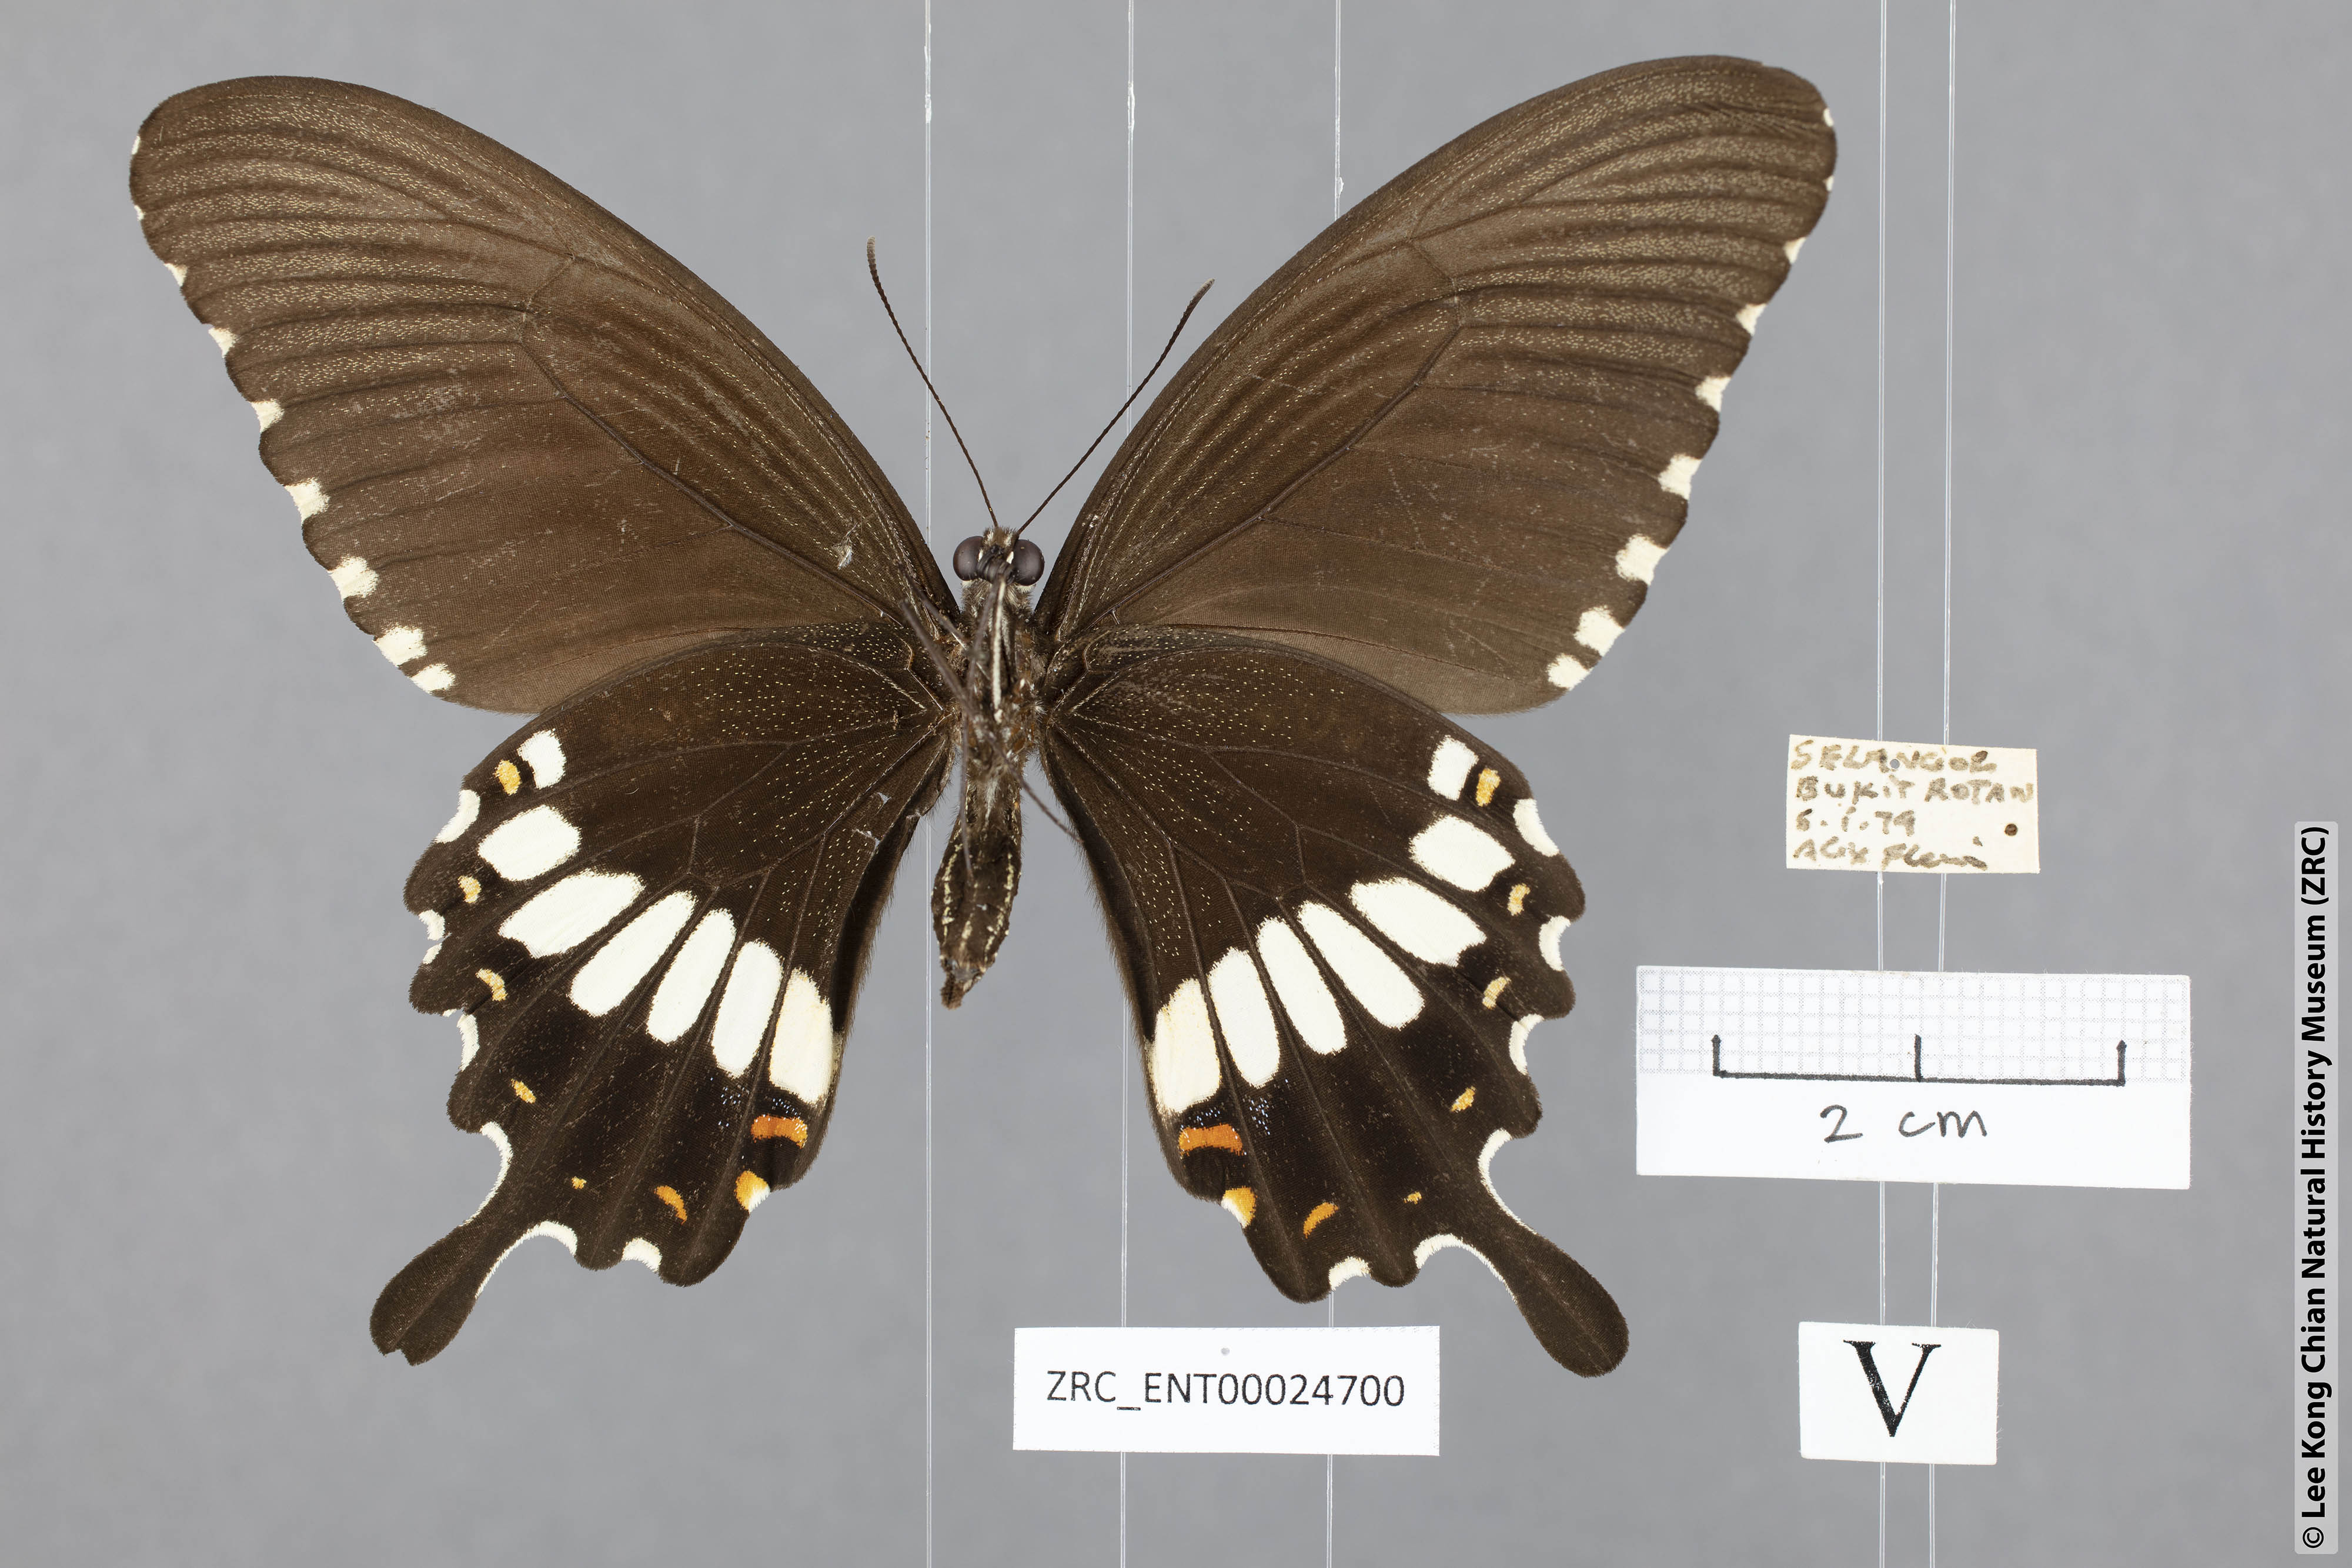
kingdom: Animalia
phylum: Arthropoda
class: Insecta
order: Lepidoptera
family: Papilionidae
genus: Papilio
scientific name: Papilio polytes
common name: Common mormon
